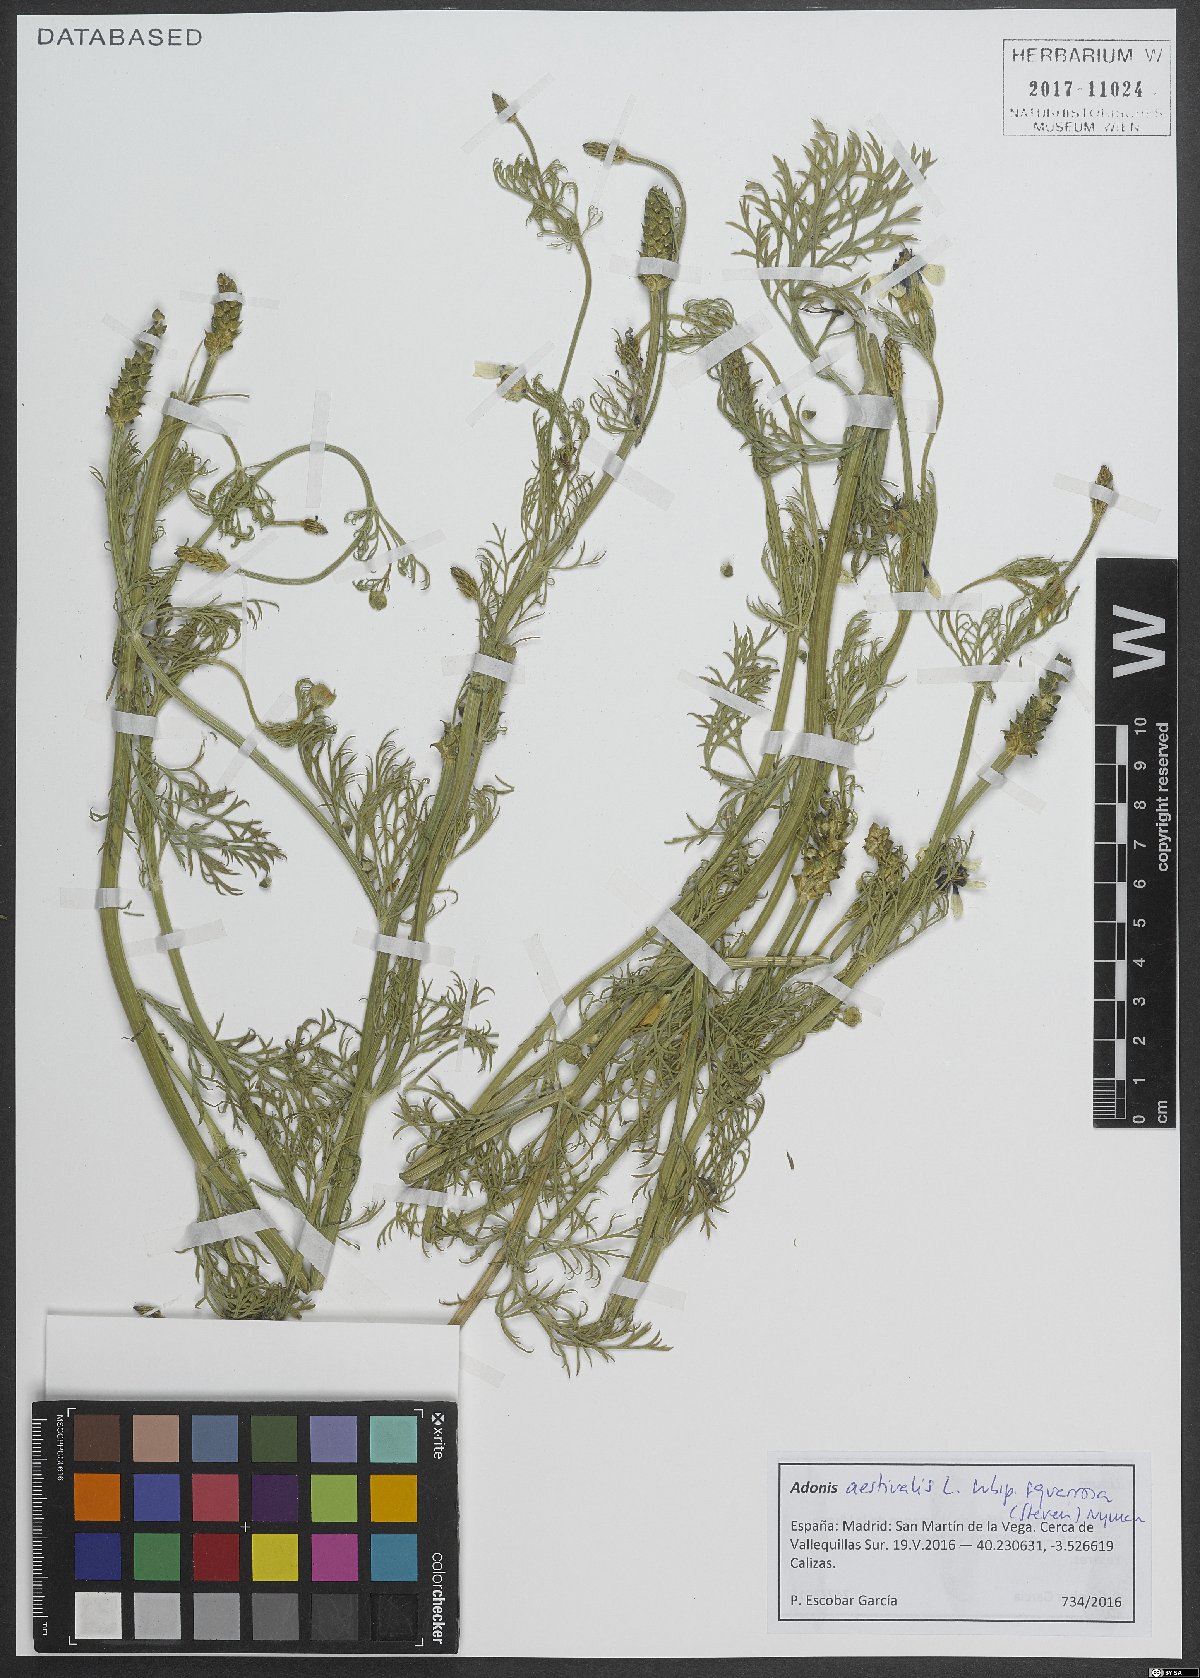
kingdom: Plantae
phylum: Tracheophyta
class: Magnoliopsida
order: Ranunculales
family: Ranunculaceae
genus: Adonis
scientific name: Adonis aestivalis
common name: Summer pheasant's-eye
